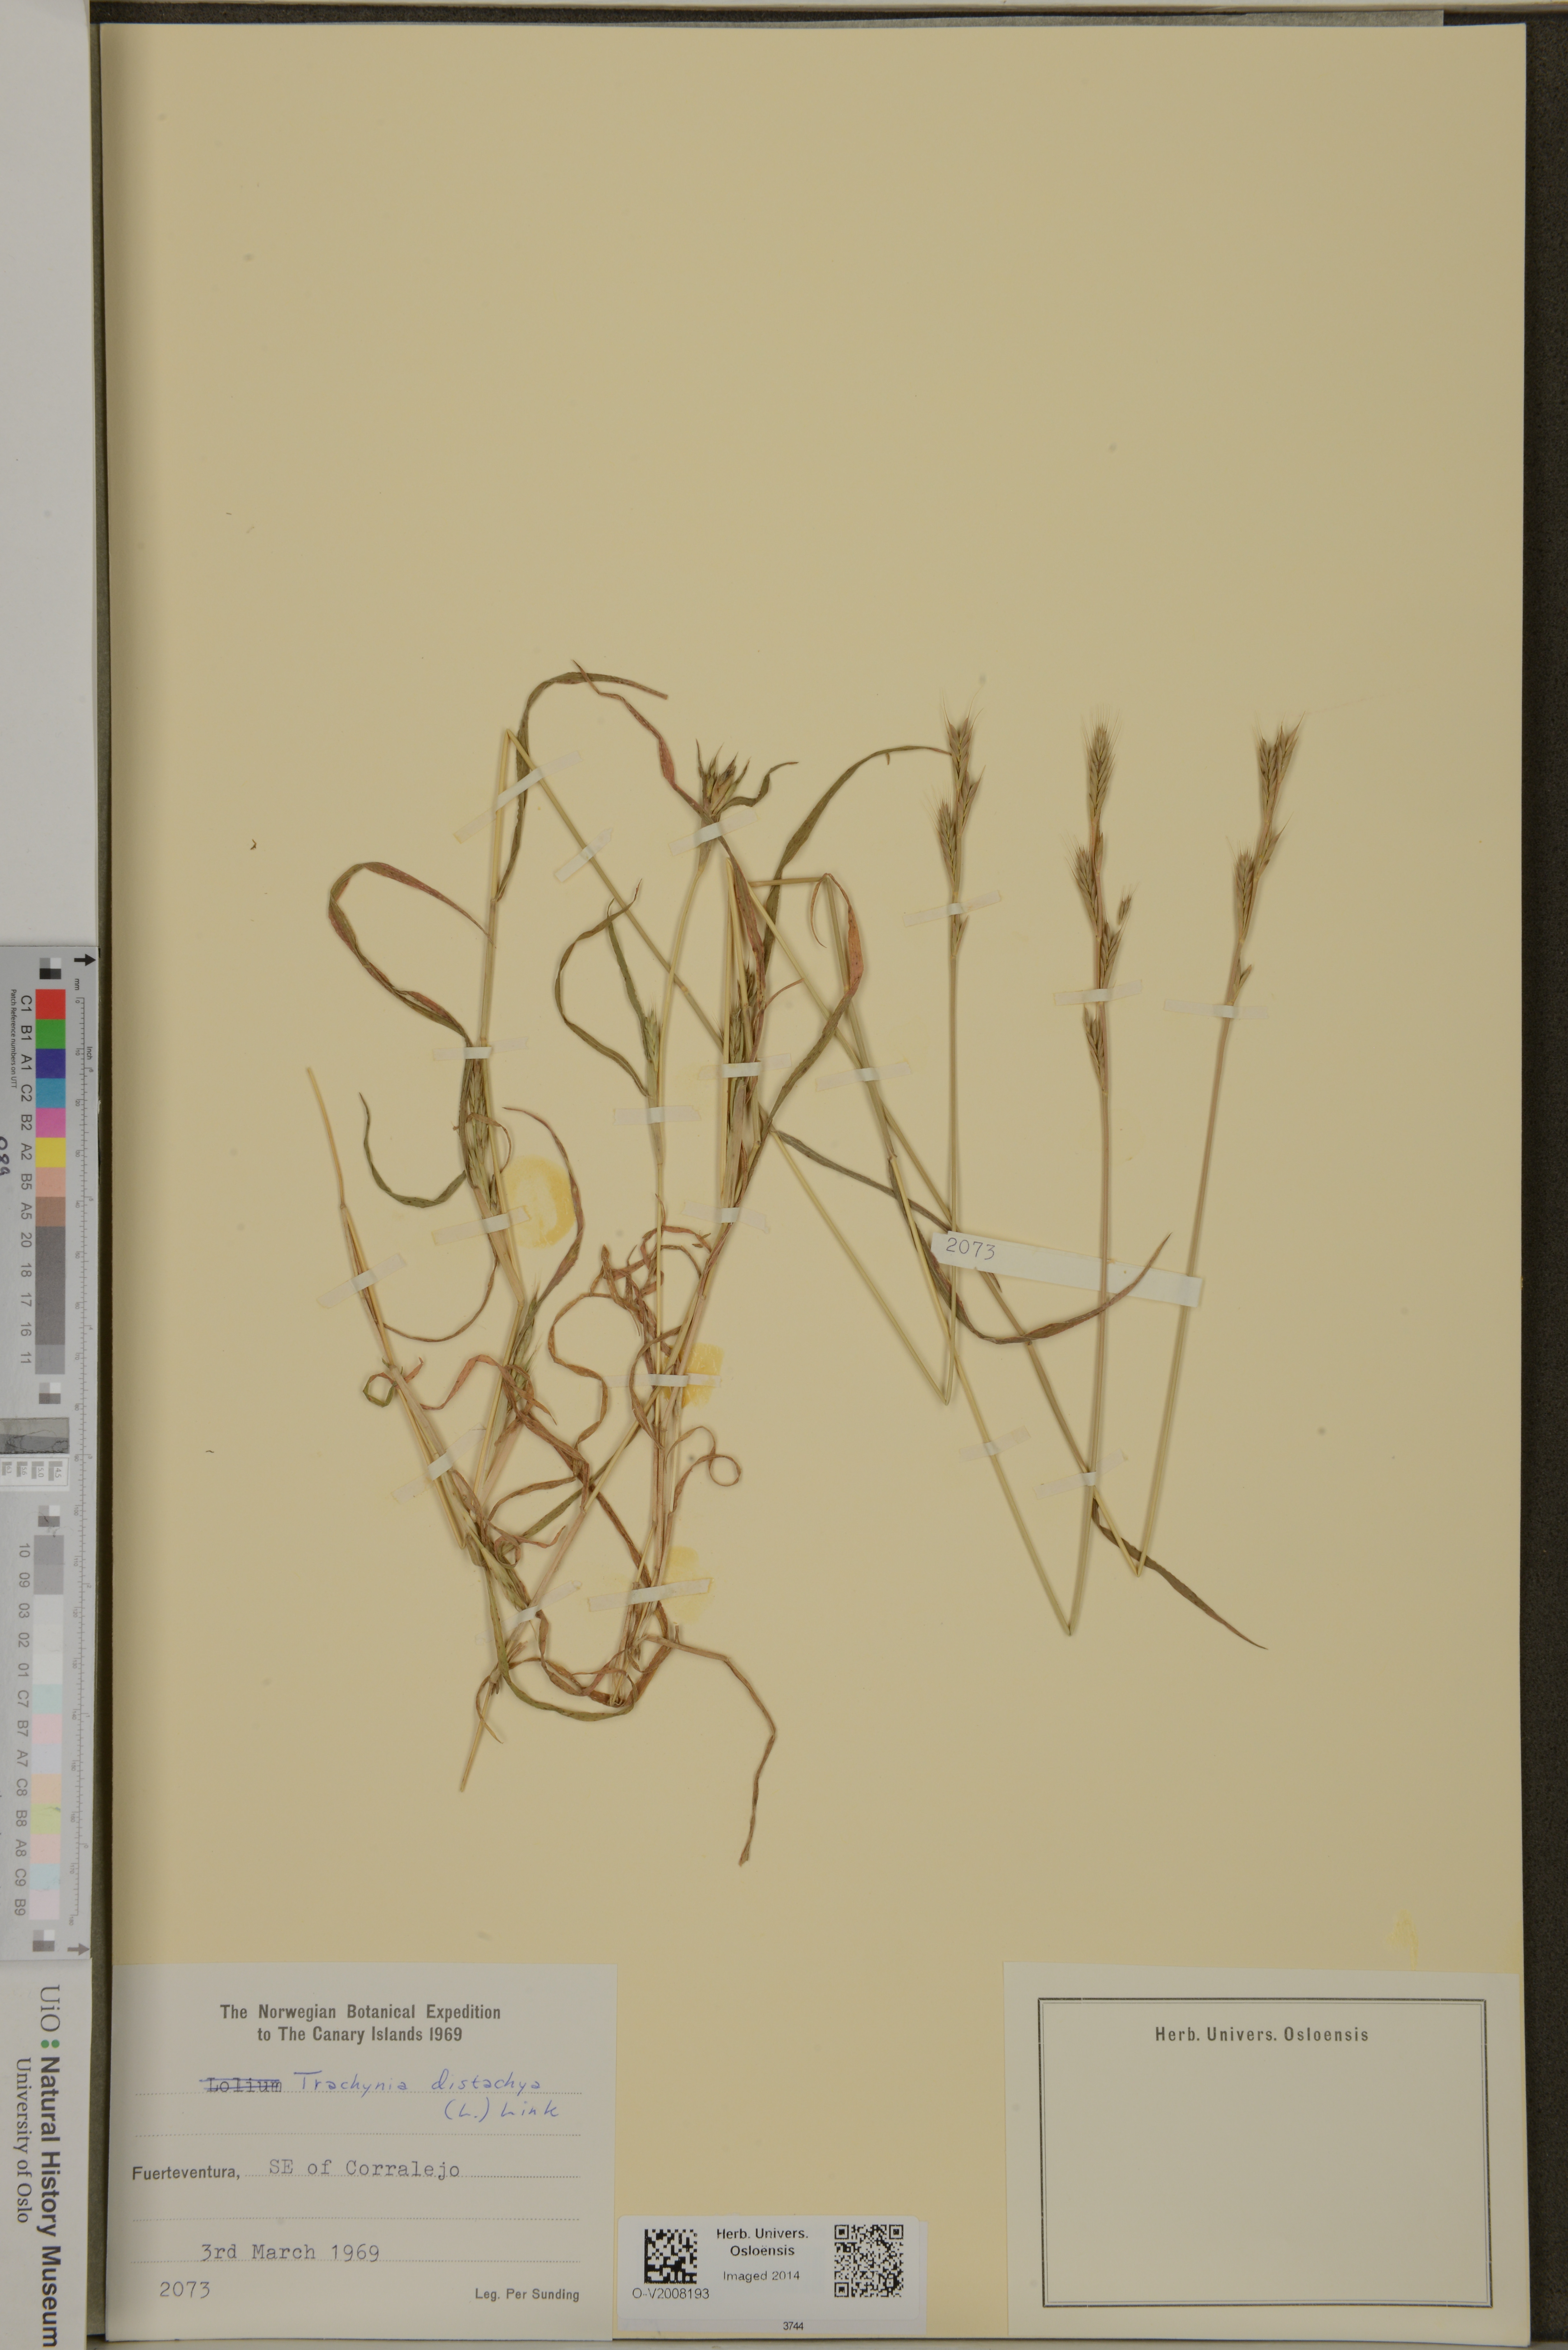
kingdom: Plantae
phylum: Tracheophyta
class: Liliopsida
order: Poales
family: Poaceae
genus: Brachypodium
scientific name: Brachypodium distachyon
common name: Stiff brome
